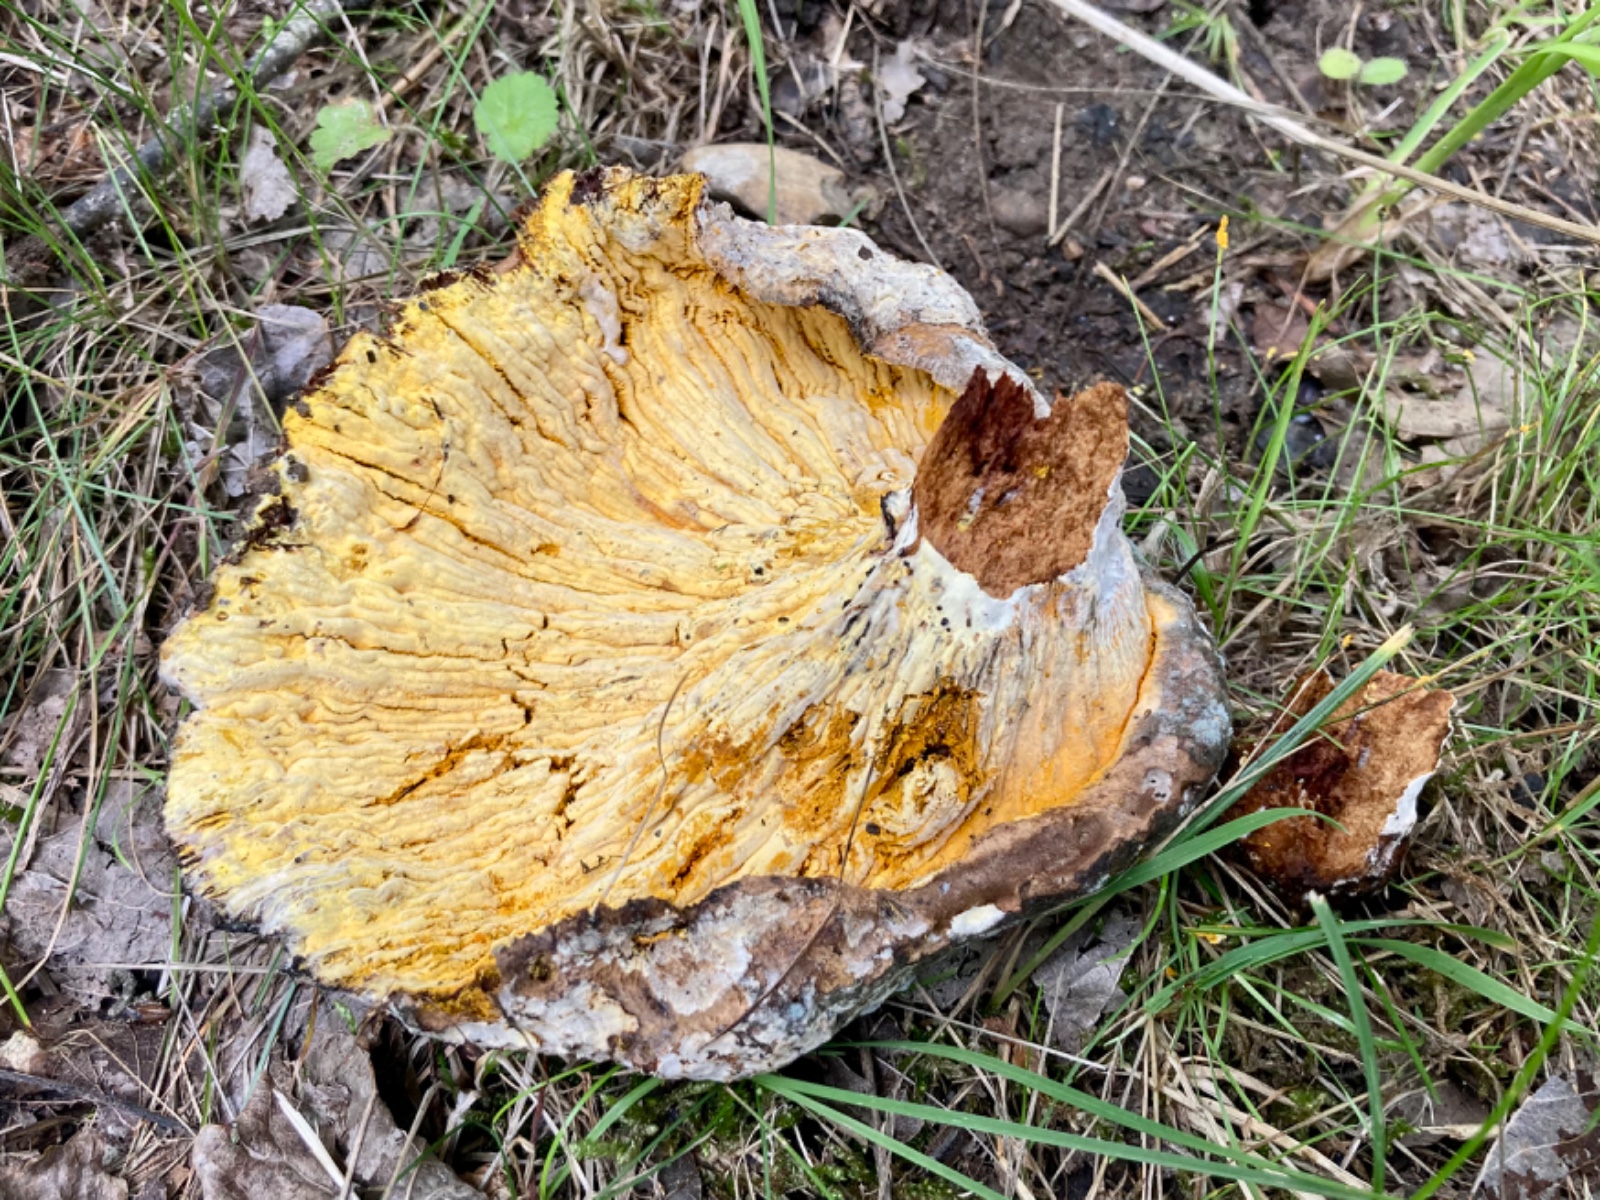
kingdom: Fungi
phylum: Ascomycota
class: Sordariomycetes
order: Hypocreales
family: Hypocreaceae
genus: Hypomyces
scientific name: Hypomyces
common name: snylteskorpe
